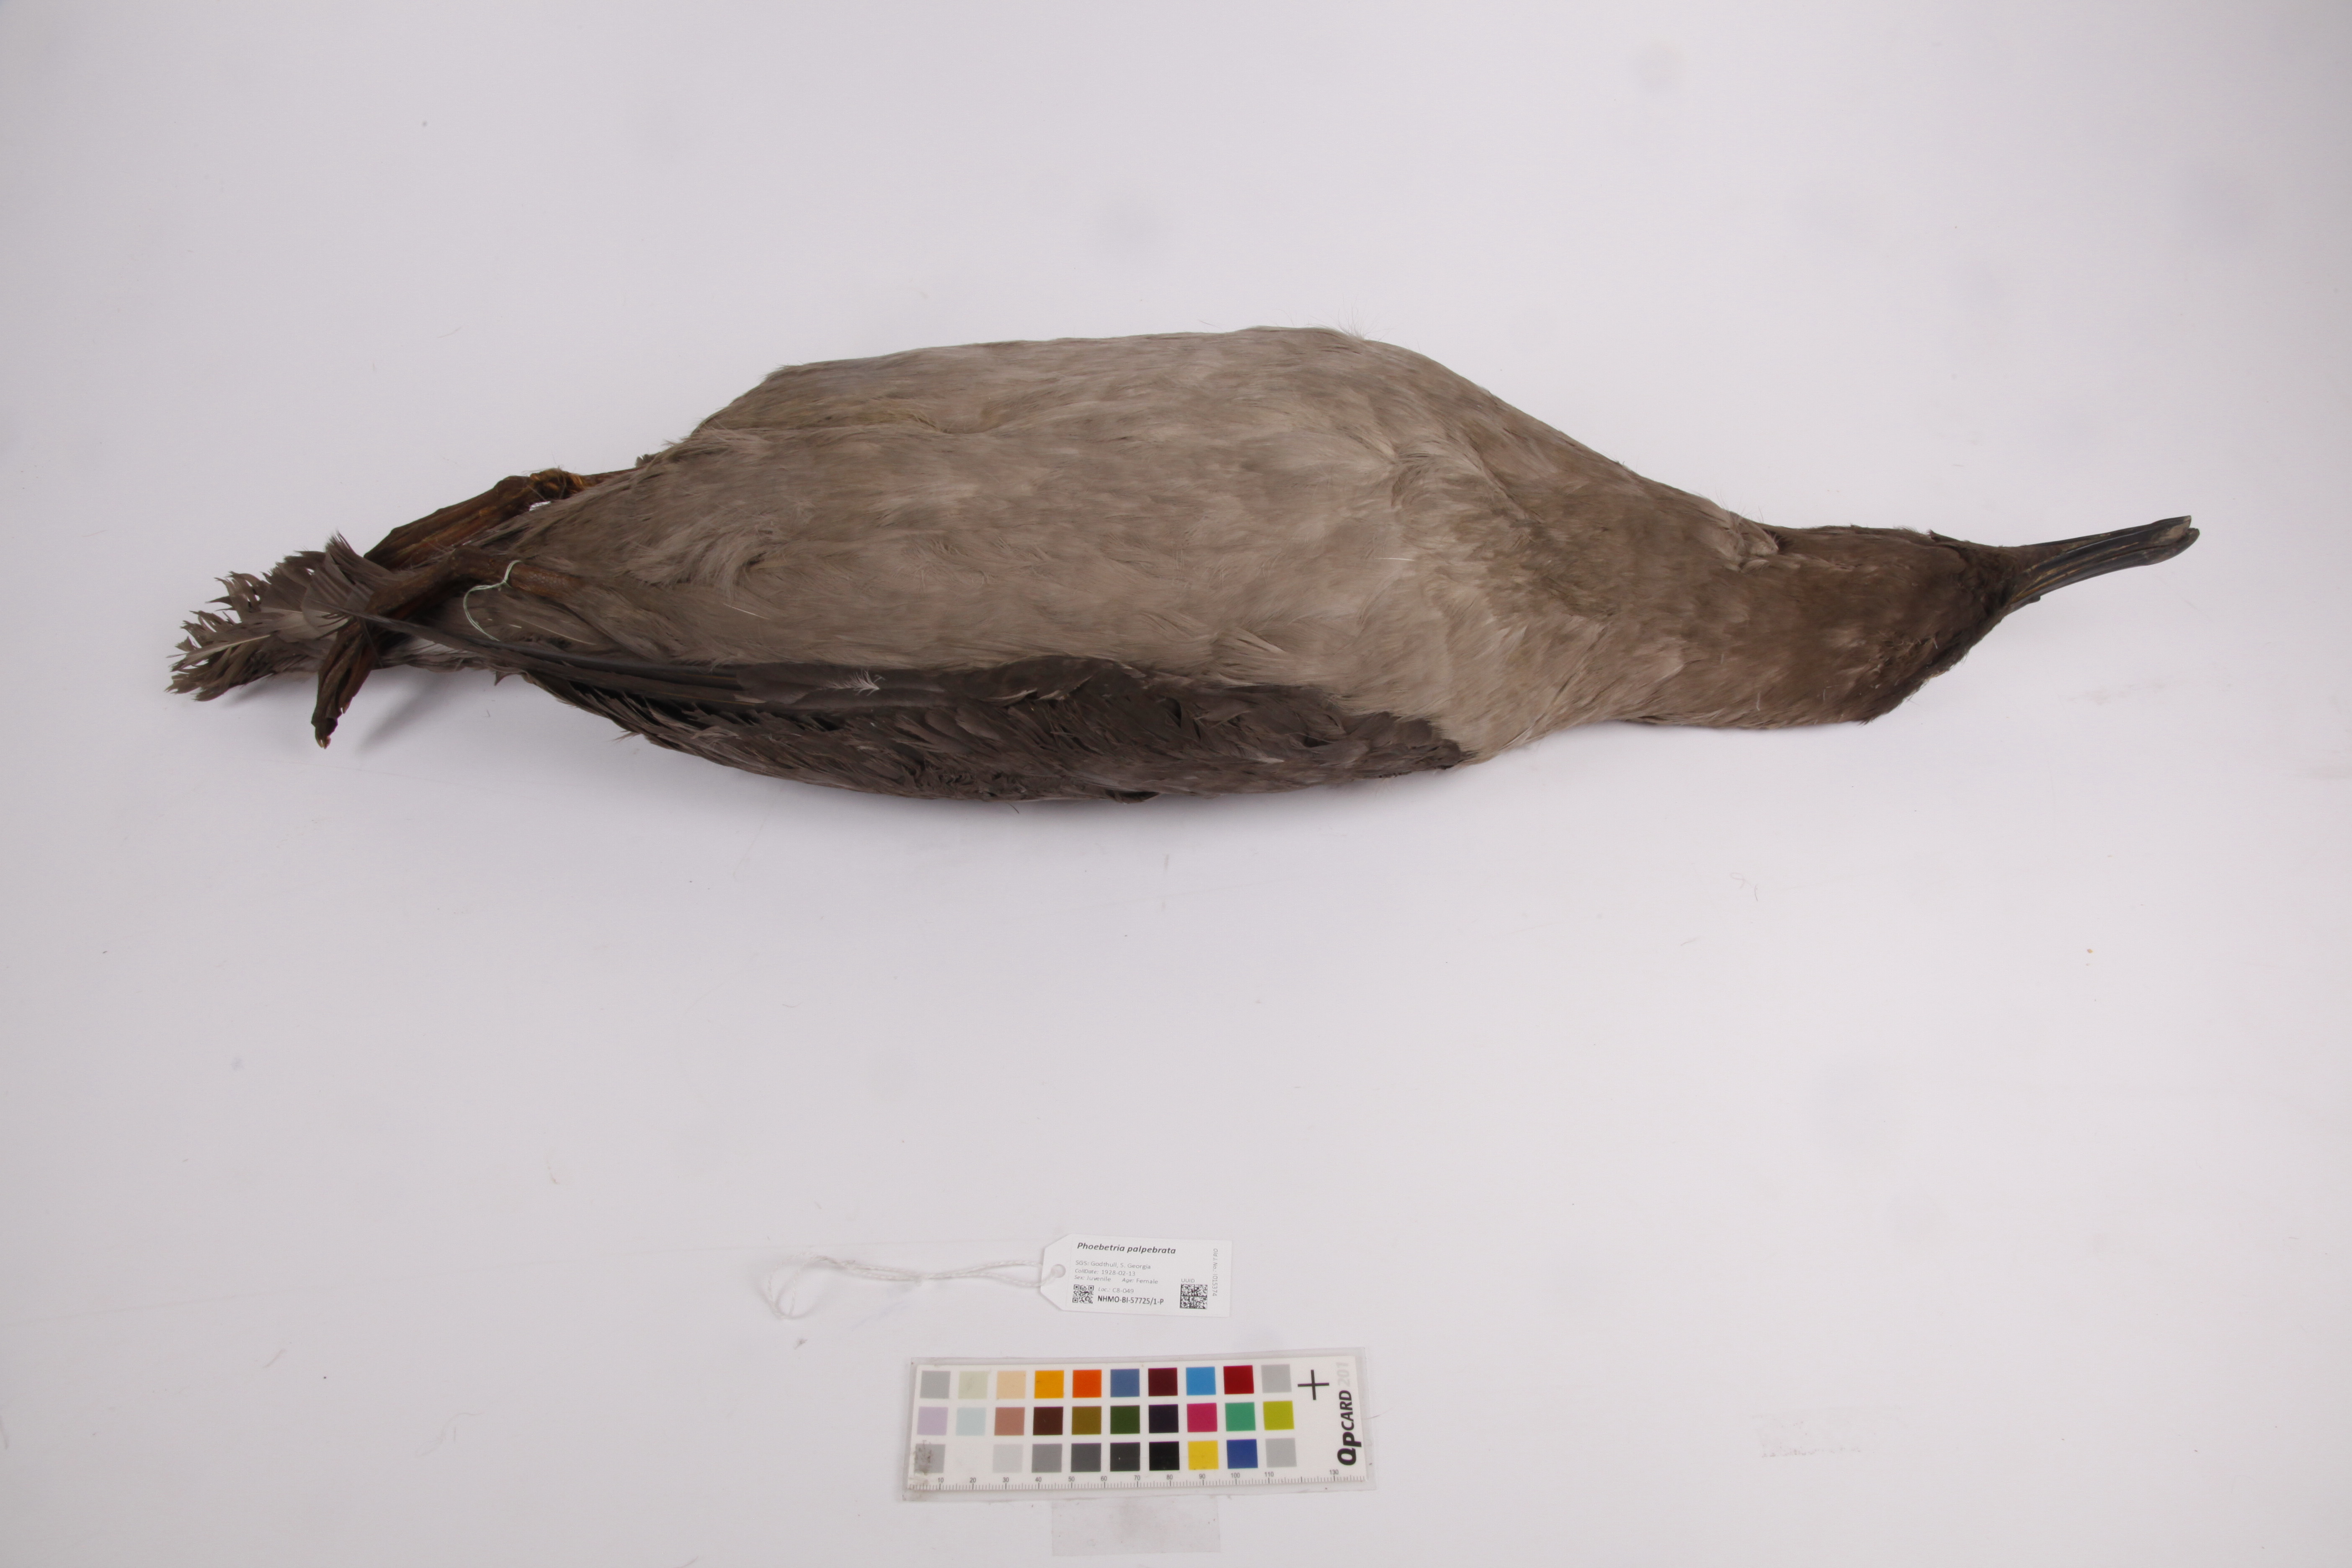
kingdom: Animalia
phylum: Chordata
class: Aves
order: Procellariiformes
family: Diomedeidae
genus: Phoebetria
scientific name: Phoebetria palpebrata
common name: Light-mantled albatross
